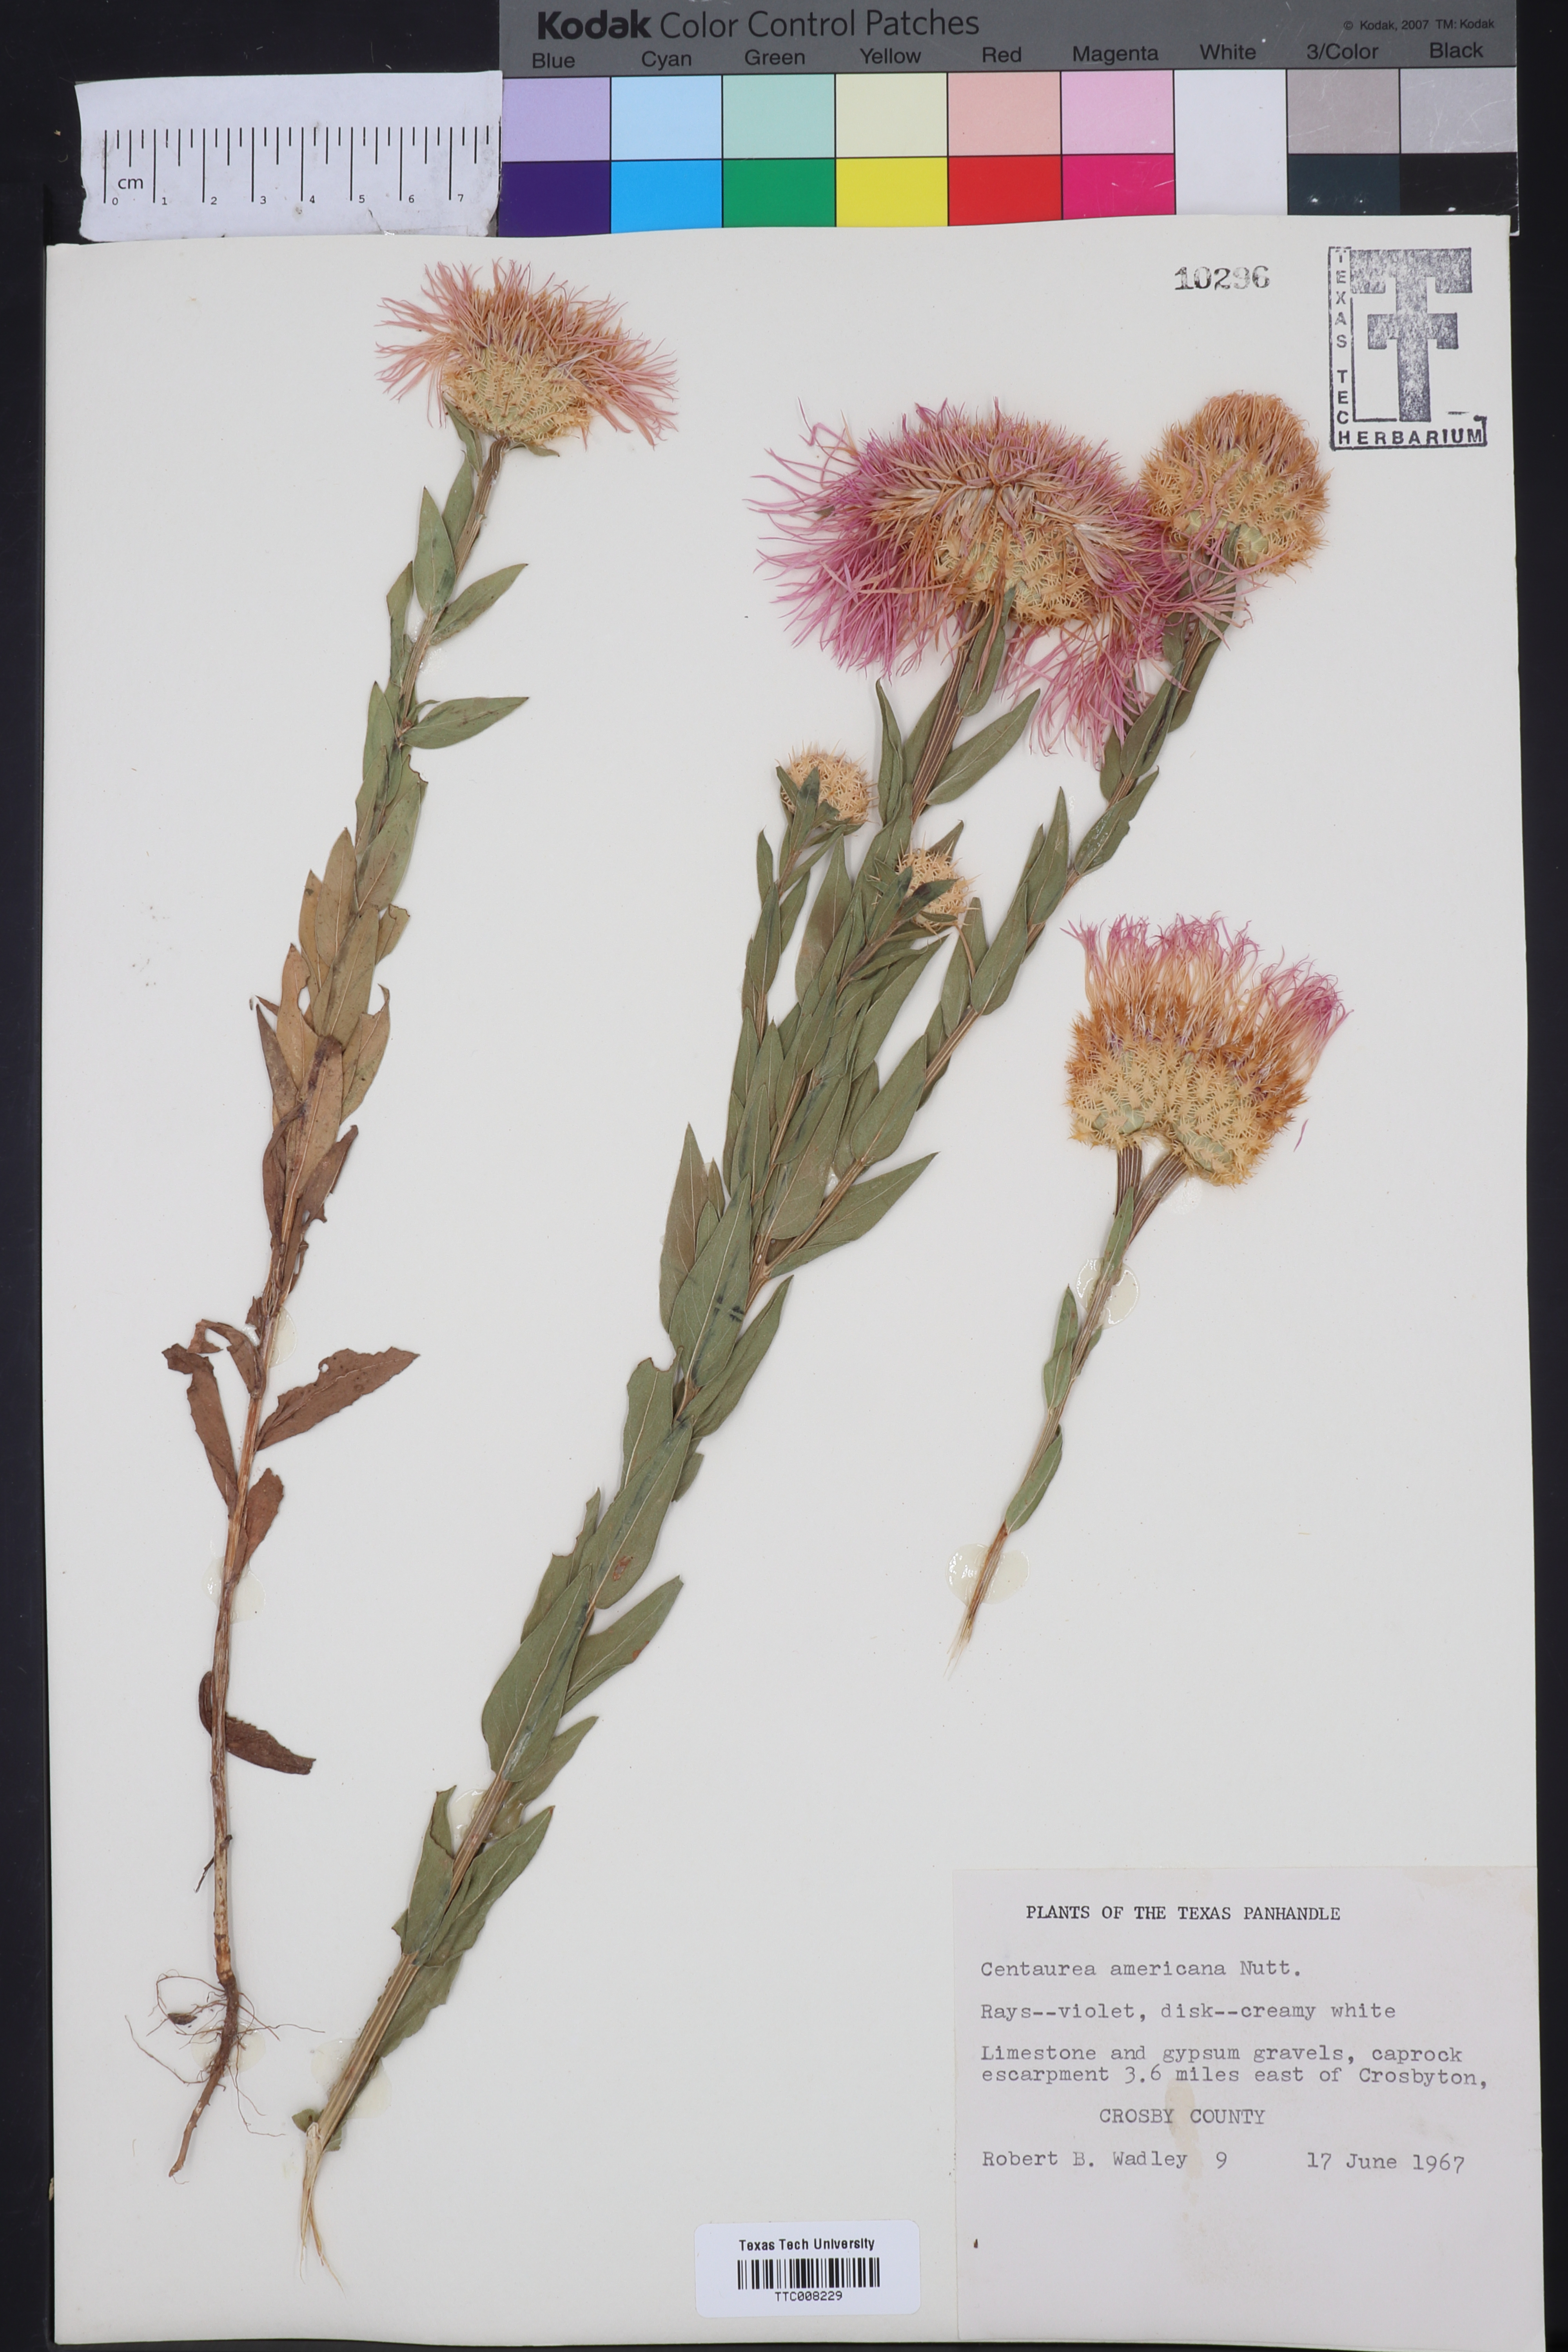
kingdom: Plantae
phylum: Tracheophyta
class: Magnoliopsida
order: Asterales
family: Asteraceae
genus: Plectocephalus
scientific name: Plectocephalus americanus
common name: American basket-flower
